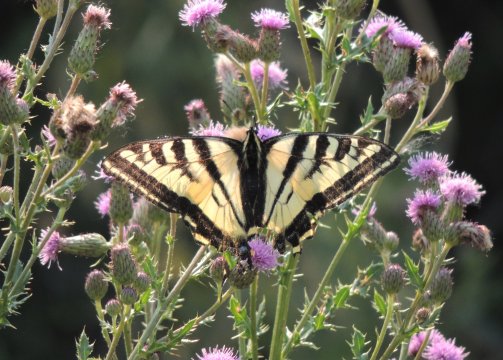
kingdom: Animalia
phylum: Arthropoda
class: Insecta
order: Lepidoptera
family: Papilionidae
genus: Pterourus
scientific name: Pterourus rutulus
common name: Western Tiger Swallowtail
